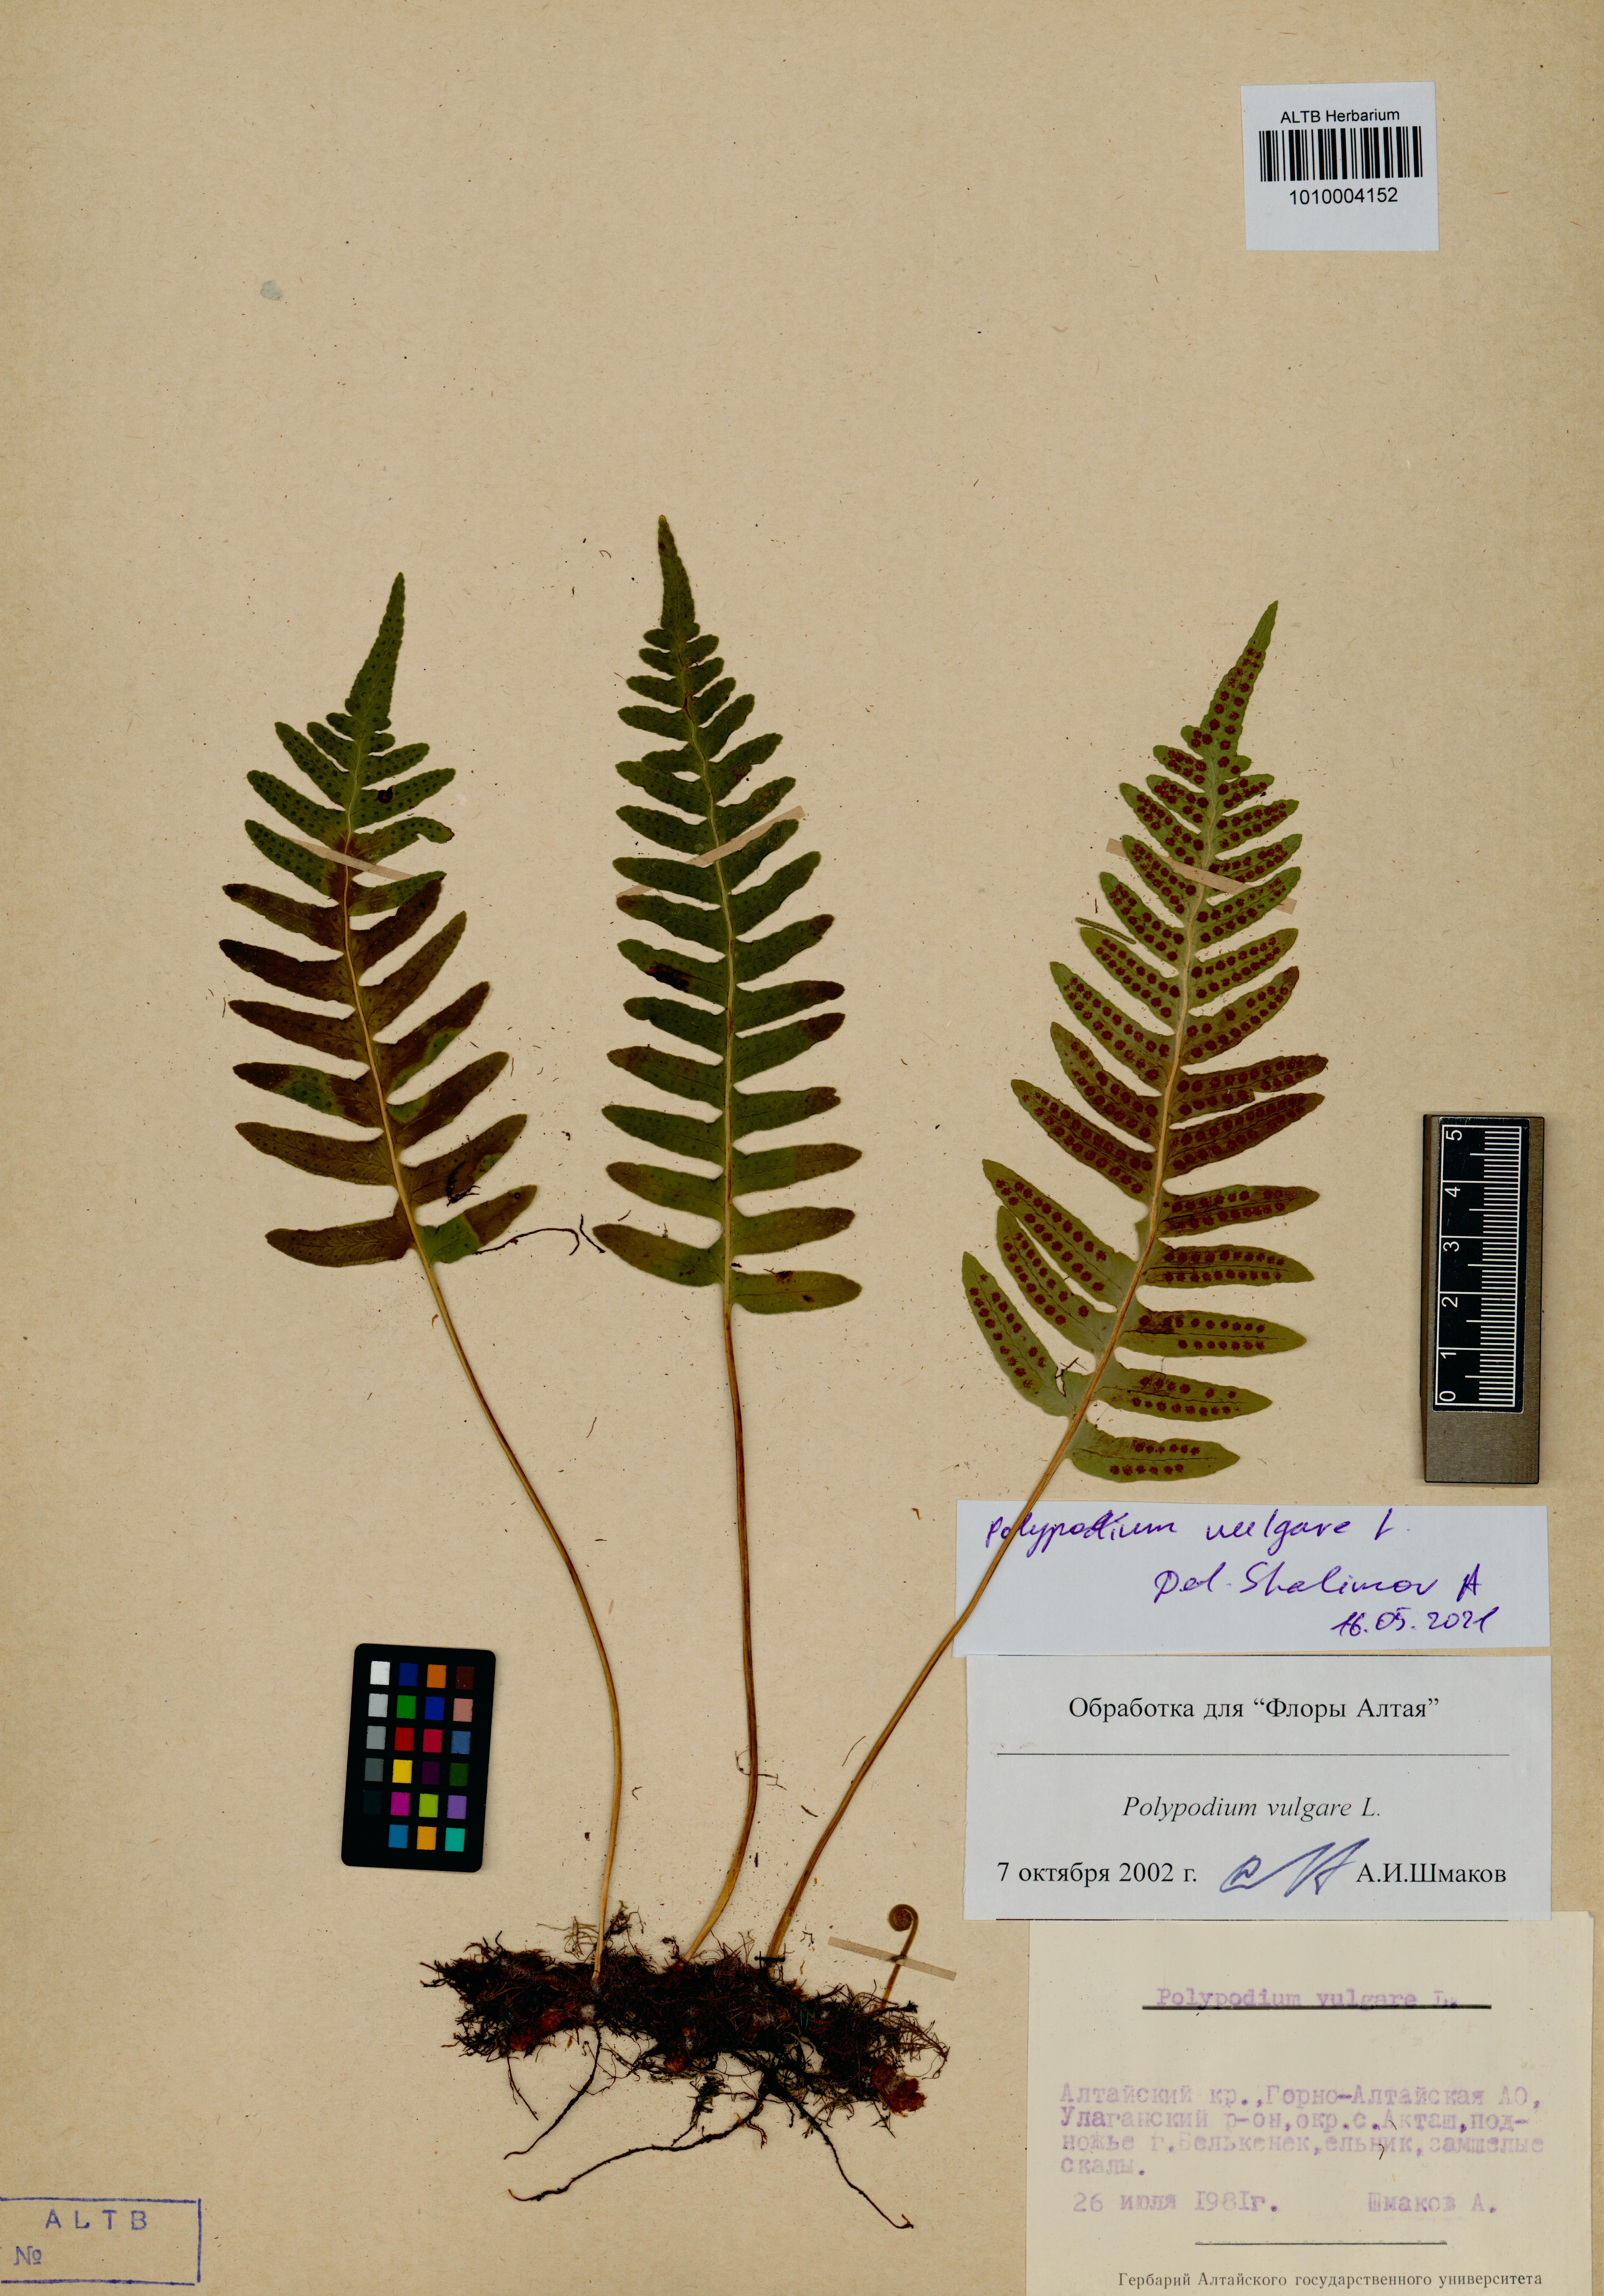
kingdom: Plantae
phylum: Tracheophyta
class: Polypodiopsida
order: Polypodiales
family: Polypodiaceae
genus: Polypodium
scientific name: Polypodium vulgare
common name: Common polypody
